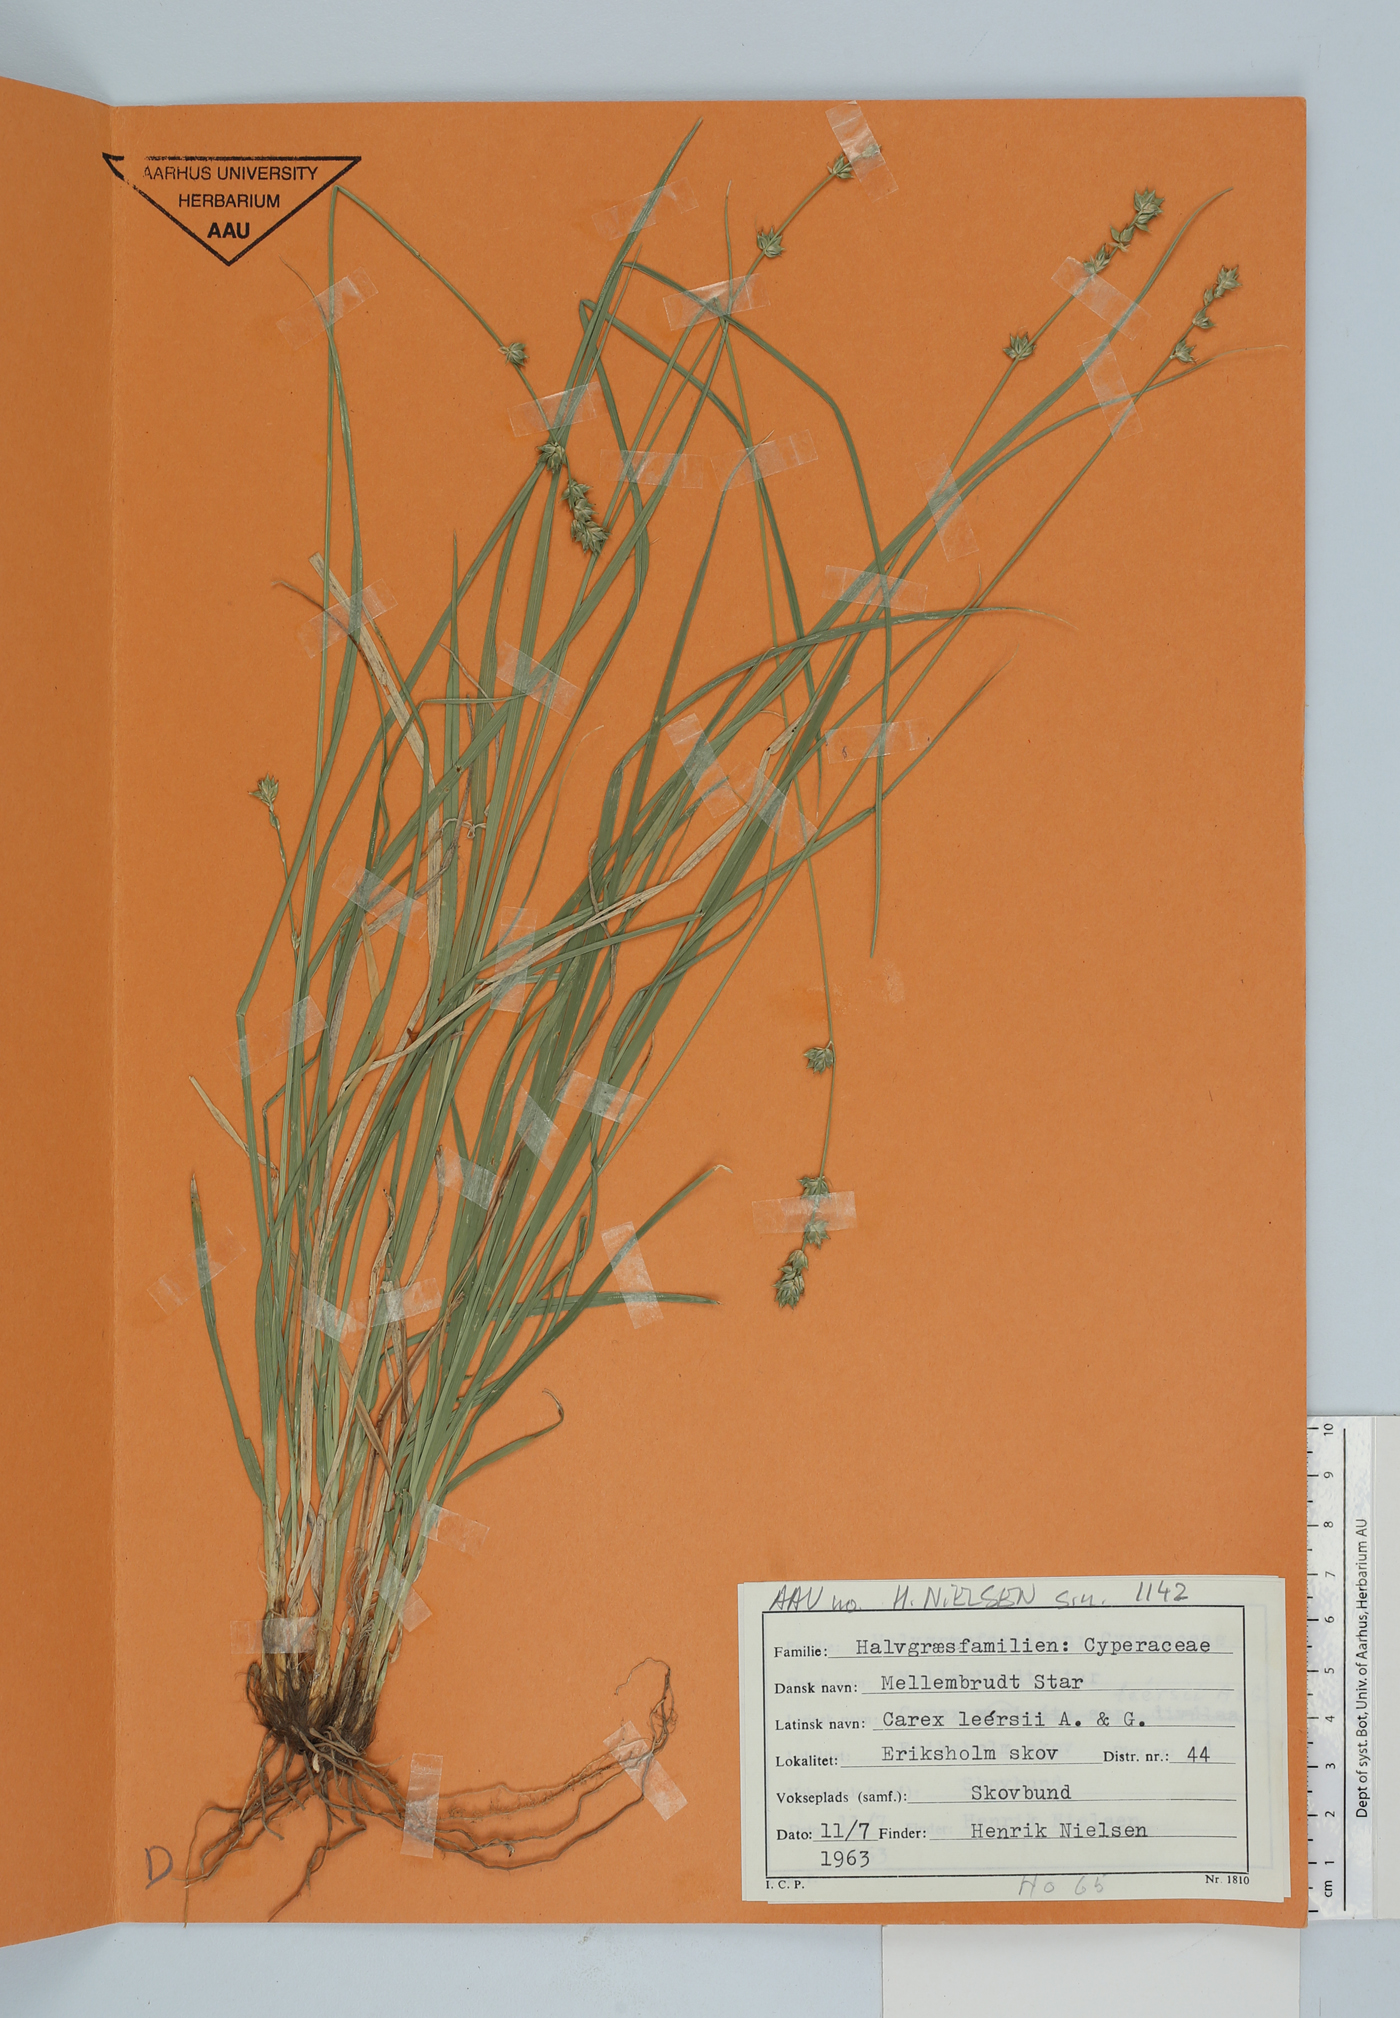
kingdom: Plantae
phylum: Tracheophyta
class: Liliopsida
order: Poales
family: Cyperaceae
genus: Carex
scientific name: Carex leersii
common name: Leers' sedge
